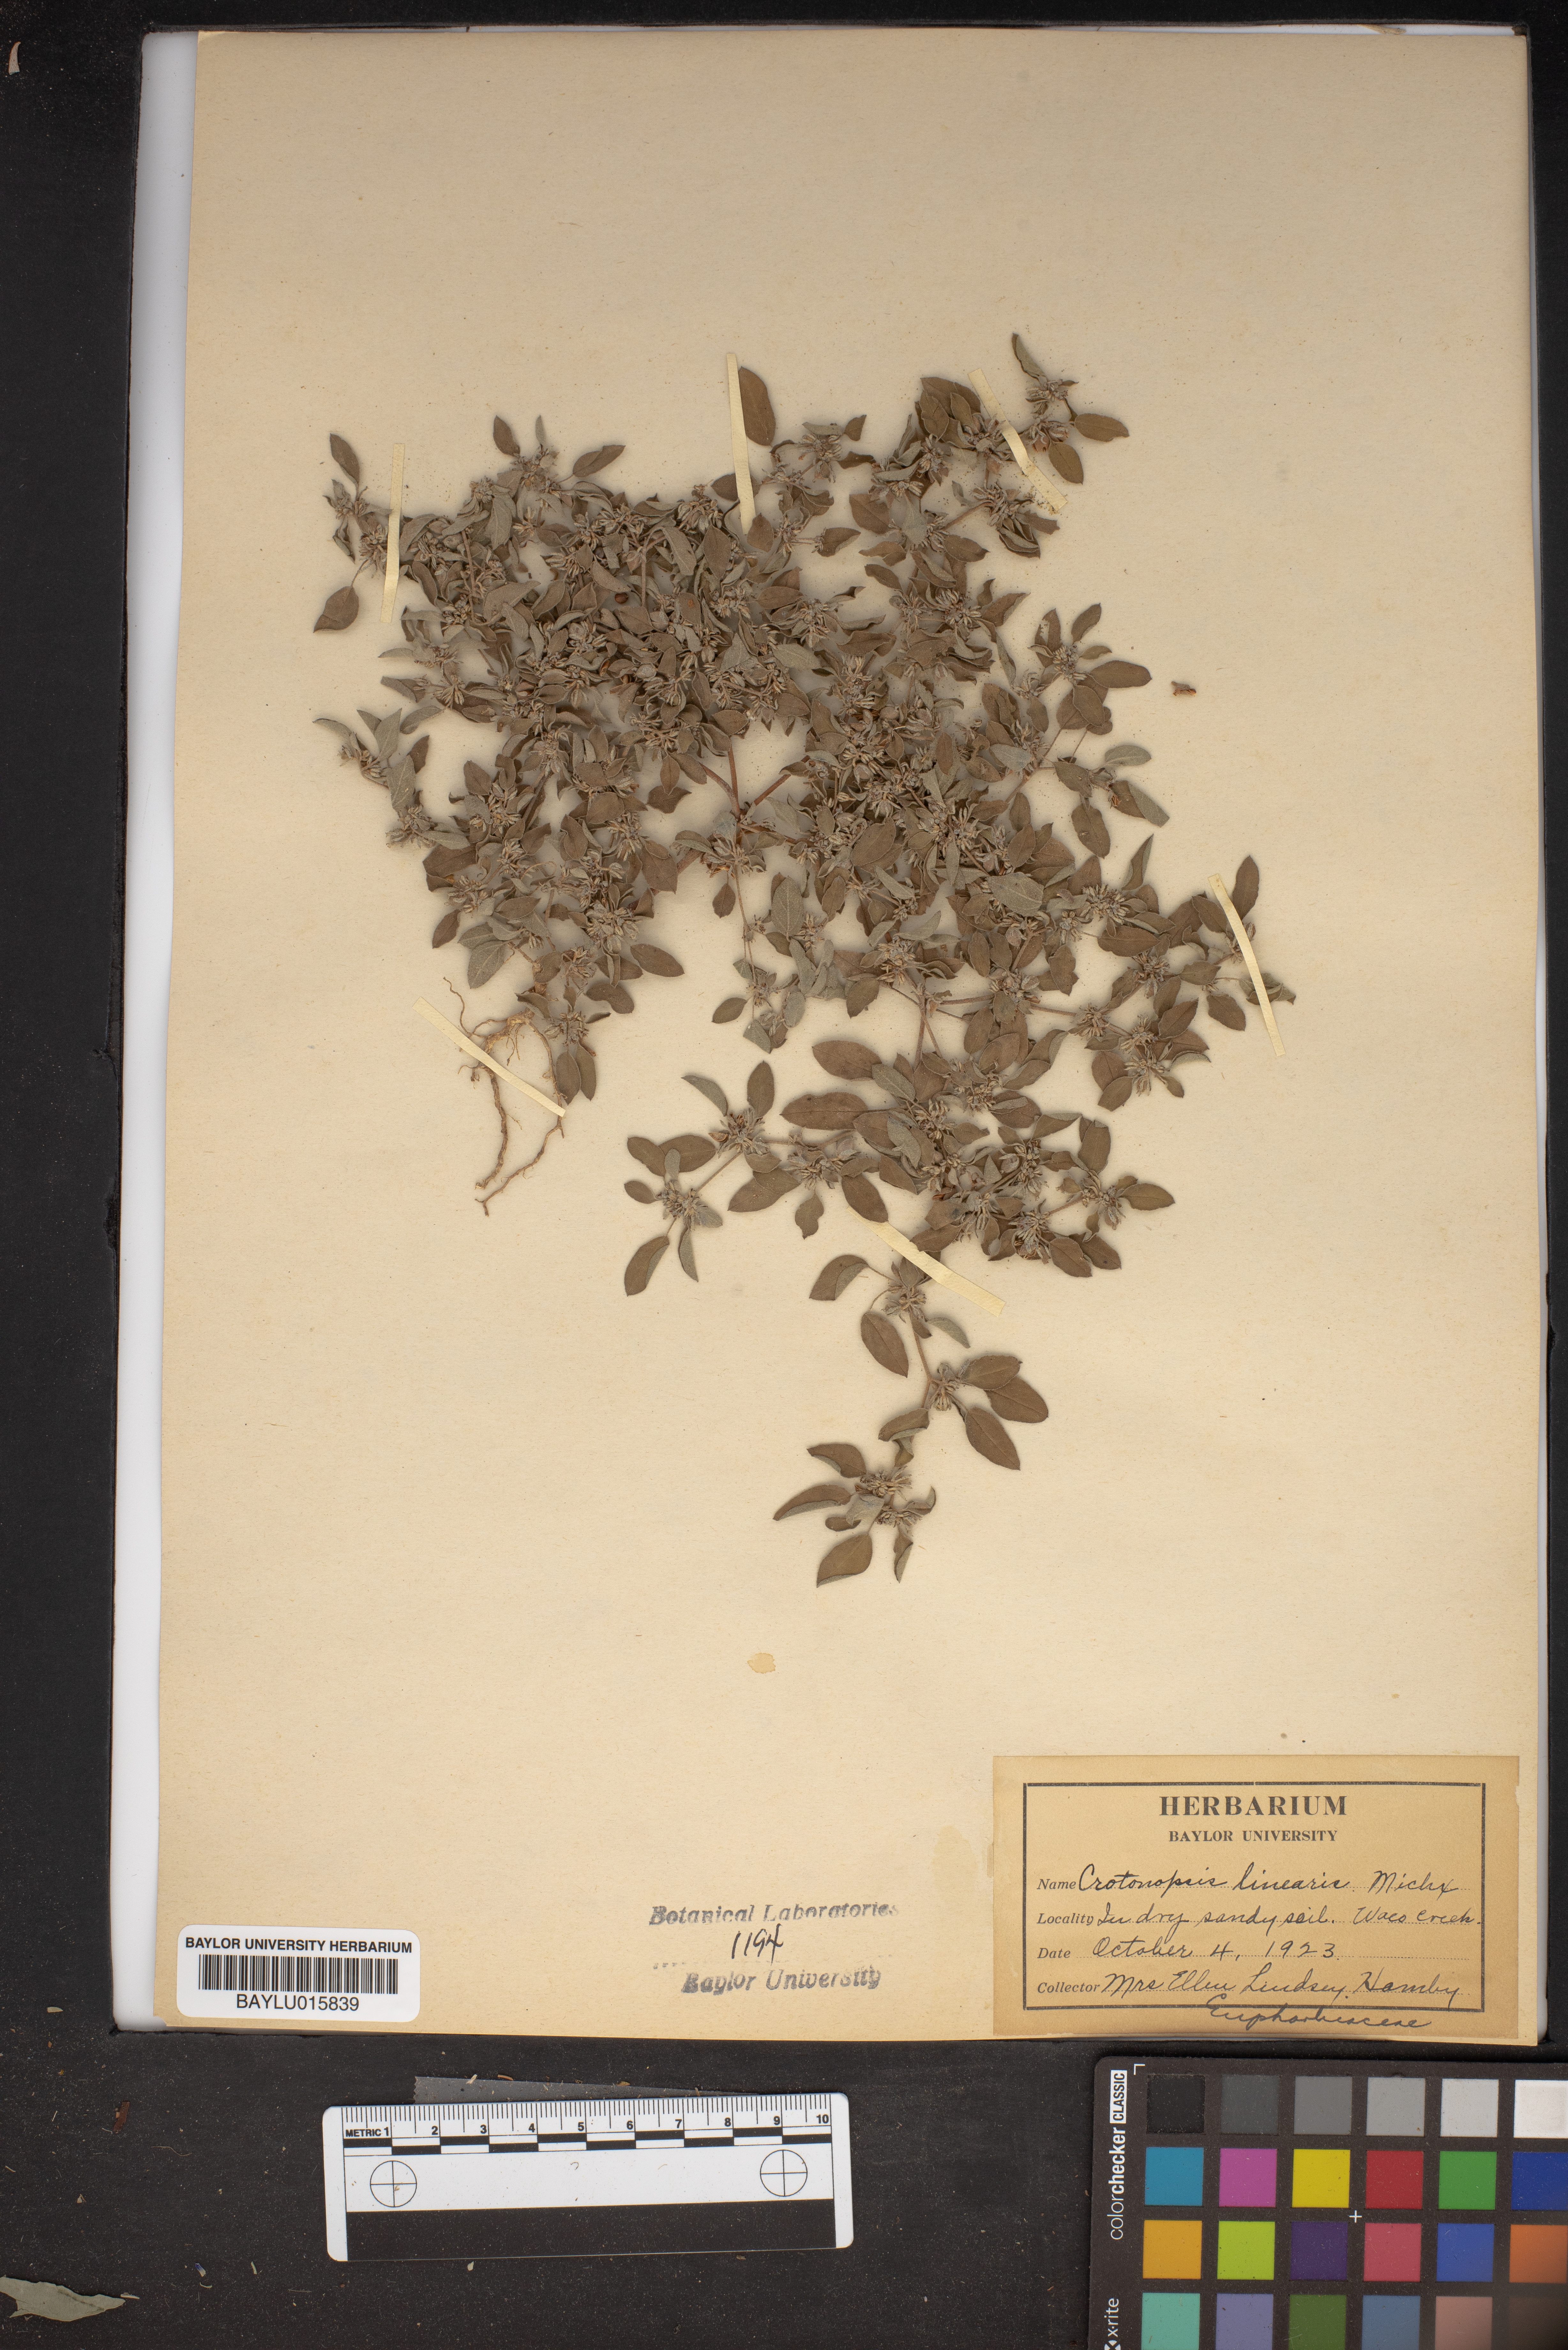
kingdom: Plantae
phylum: Tracheophyta
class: Magnoliopsida
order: Malpighiales
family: Euphorbiaceae
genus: Croton
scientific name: Croton michauxii
